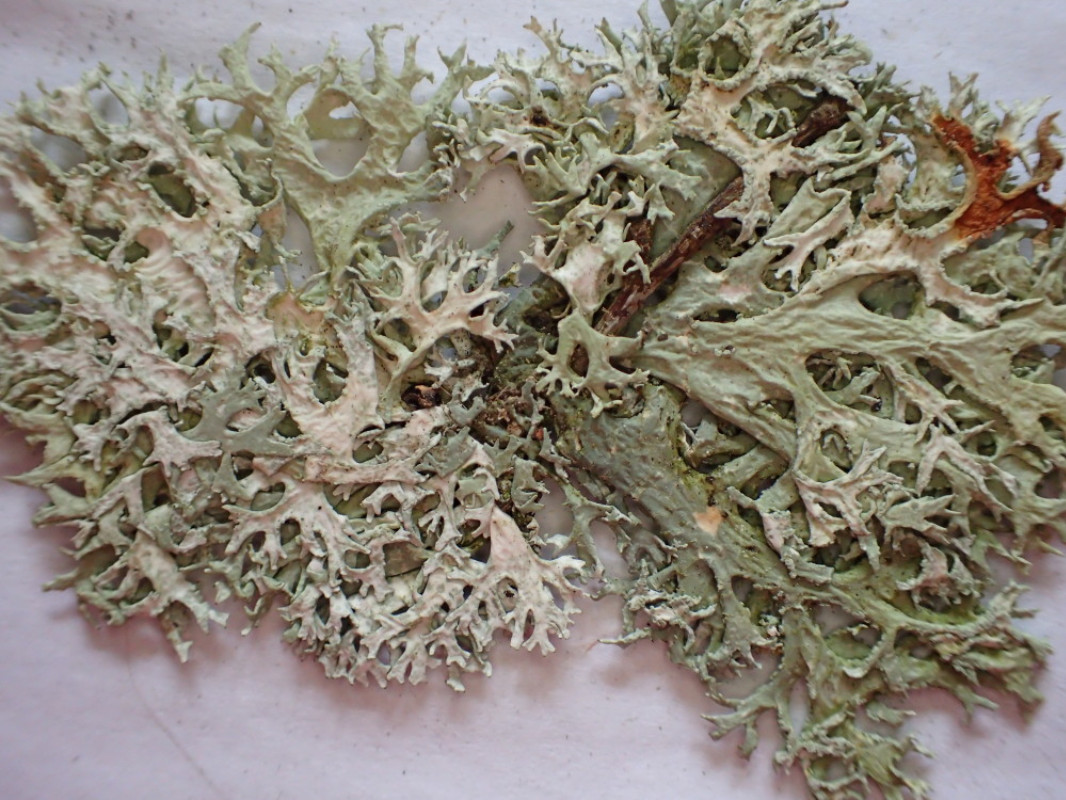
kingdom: Fungi
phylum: Ascomycota
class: Lecanoromycetes
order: Lecanorales
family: Parmeliaceae
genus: Evernia
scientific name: Evernia prunastri
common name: almindelig slåenlav
